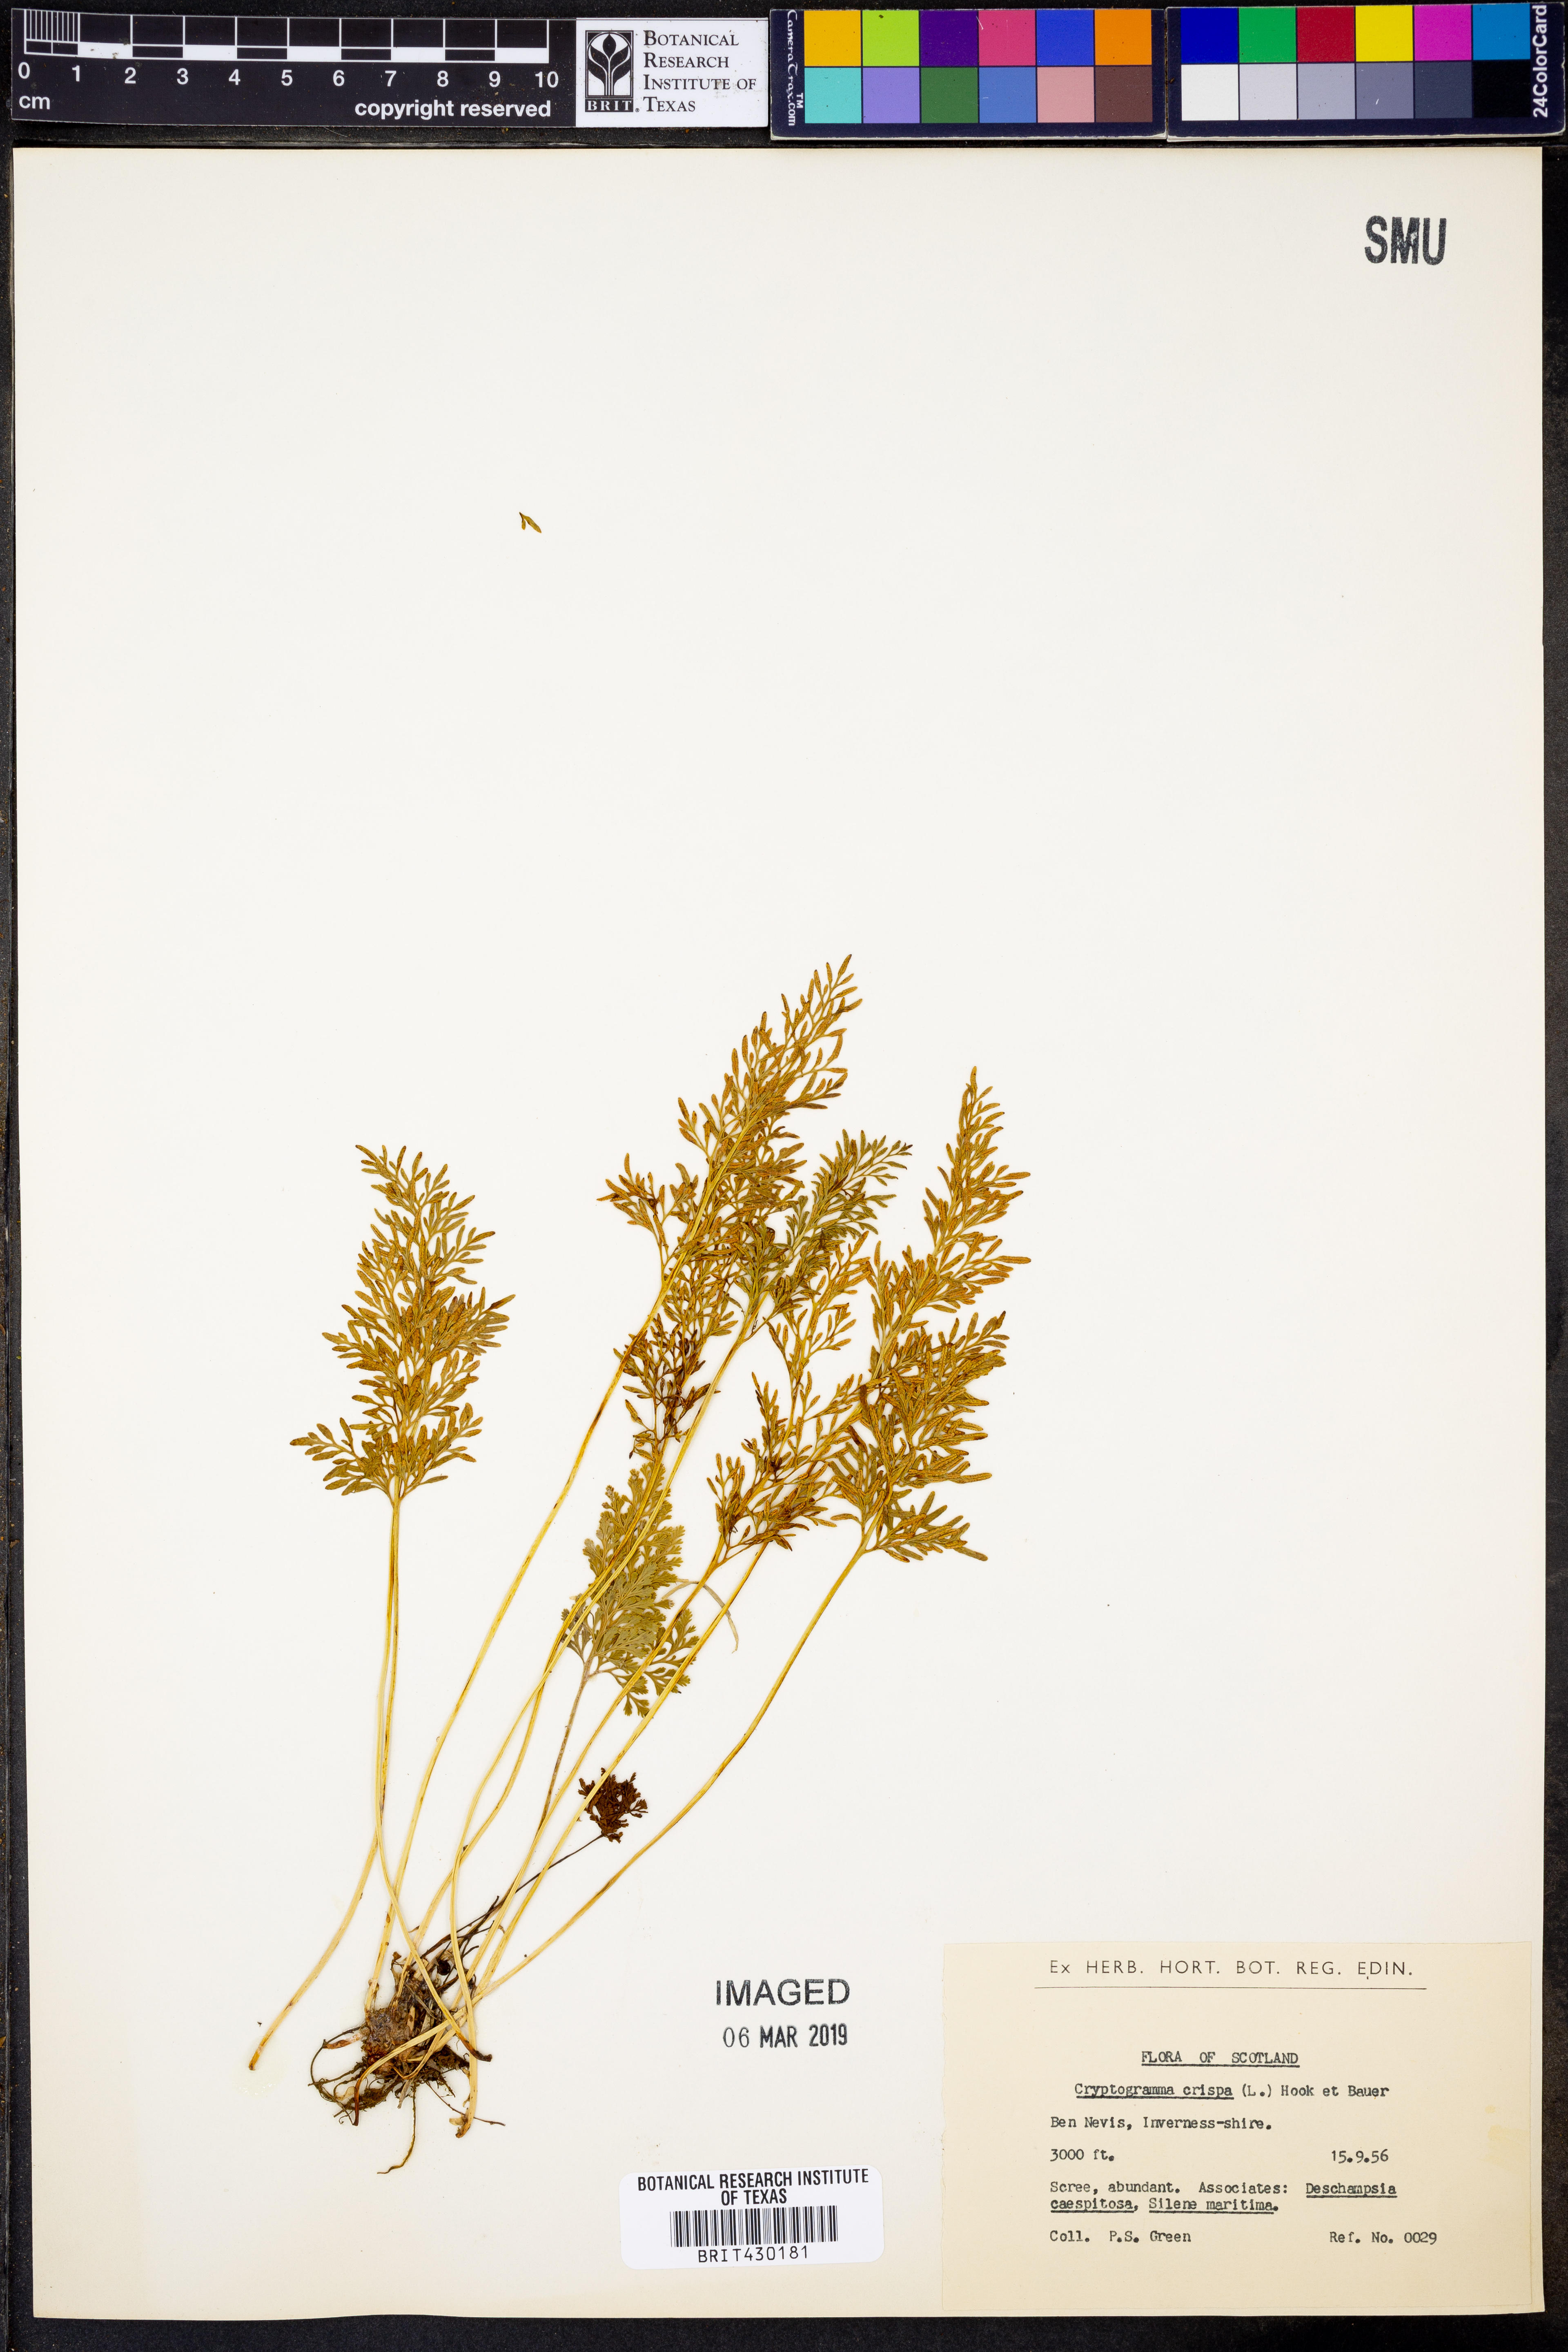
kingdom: Plantae
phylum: Tracheophyta
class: Polypodiopsida
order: Polypodiales
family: Pteridaceae
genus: Cryptogramma
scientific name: Cryptogramma crispa
